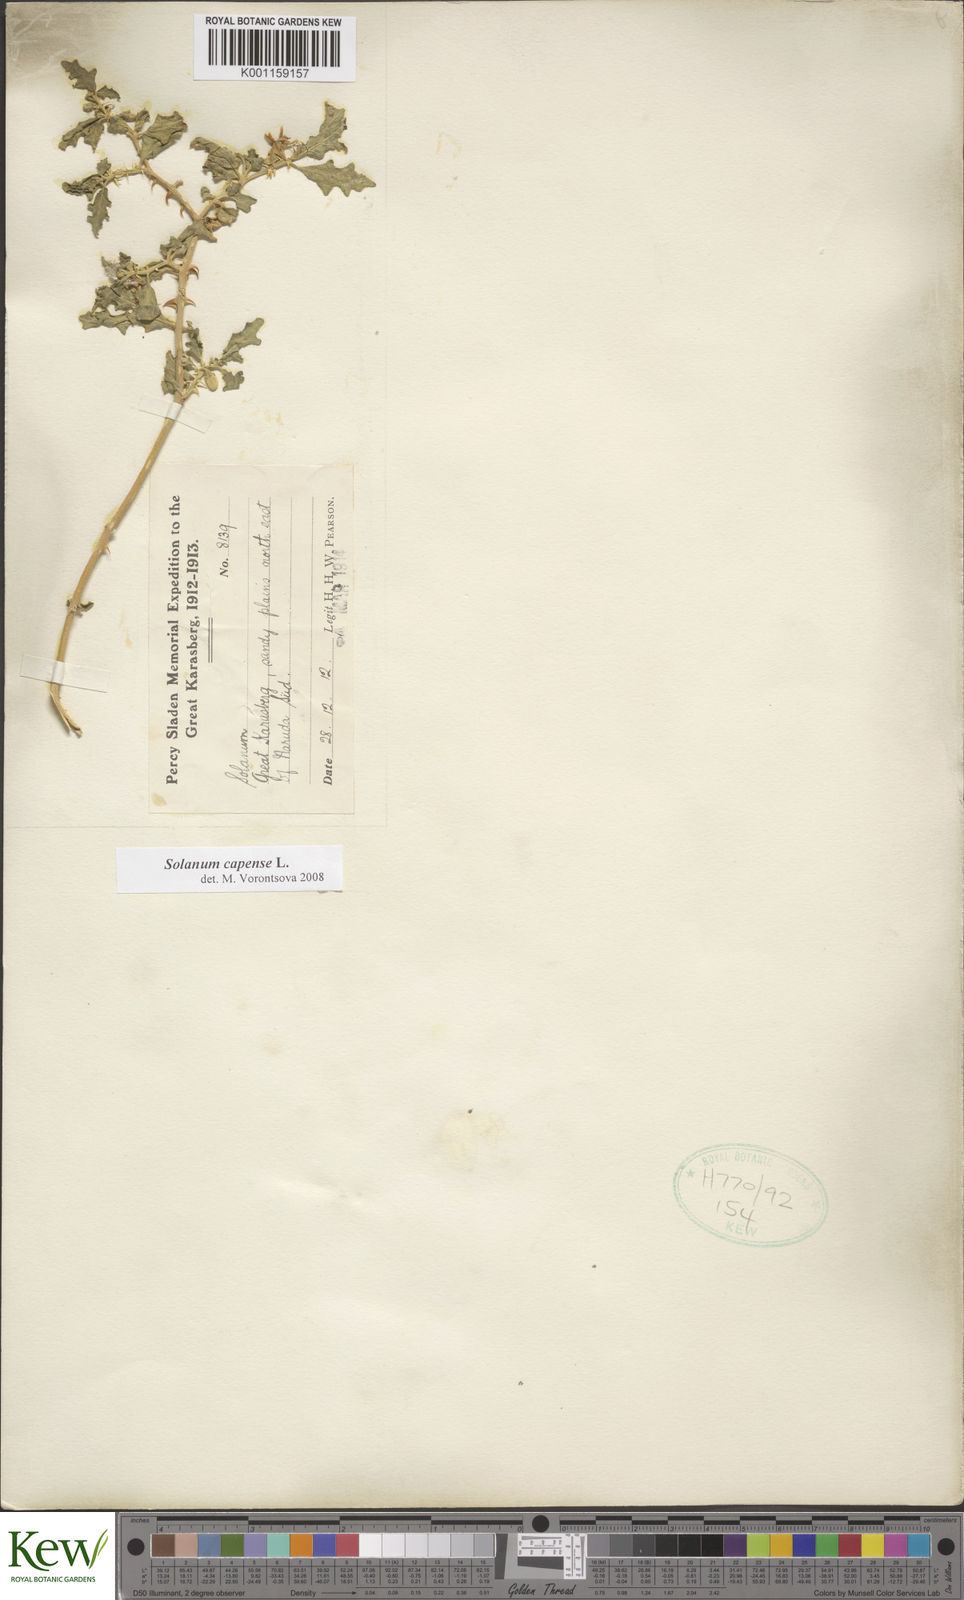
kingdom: Plantae
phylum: Tracheophyta
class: Magnoliopsida
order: Solanales
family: Solanaceae
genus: Solanum
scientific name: Solanum capense
